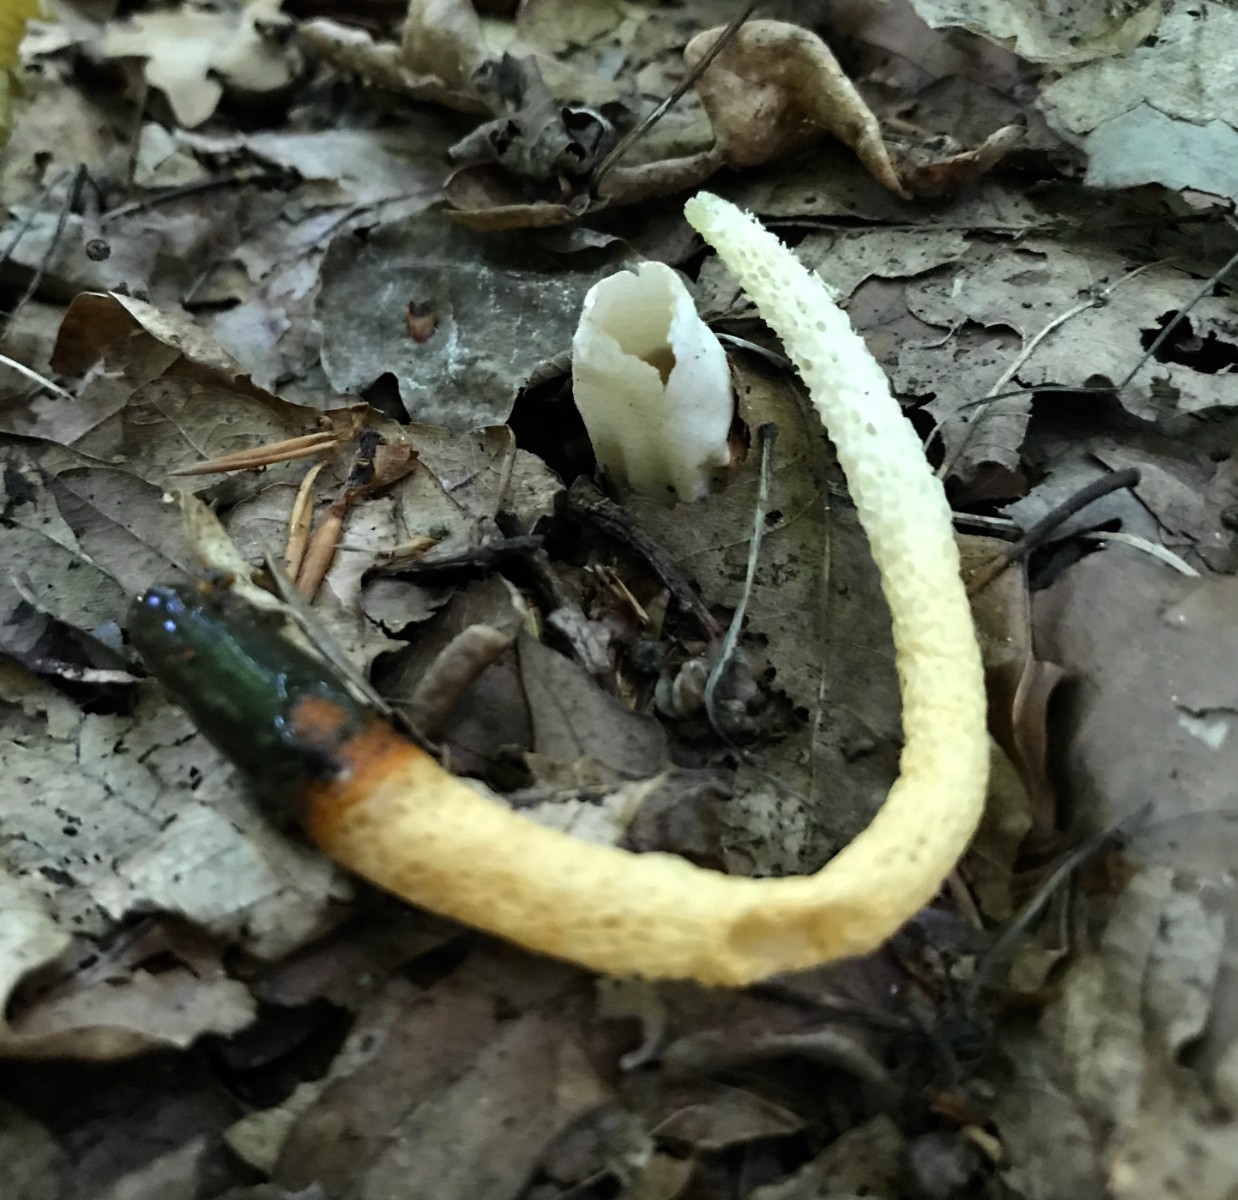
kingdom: Fungi
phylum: Basidiomycota
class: Agaricomycetes
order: Phallales
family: Phallaceae
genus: Mutinus
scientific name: Mutinus caninus
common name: hunde-stinksvamp
